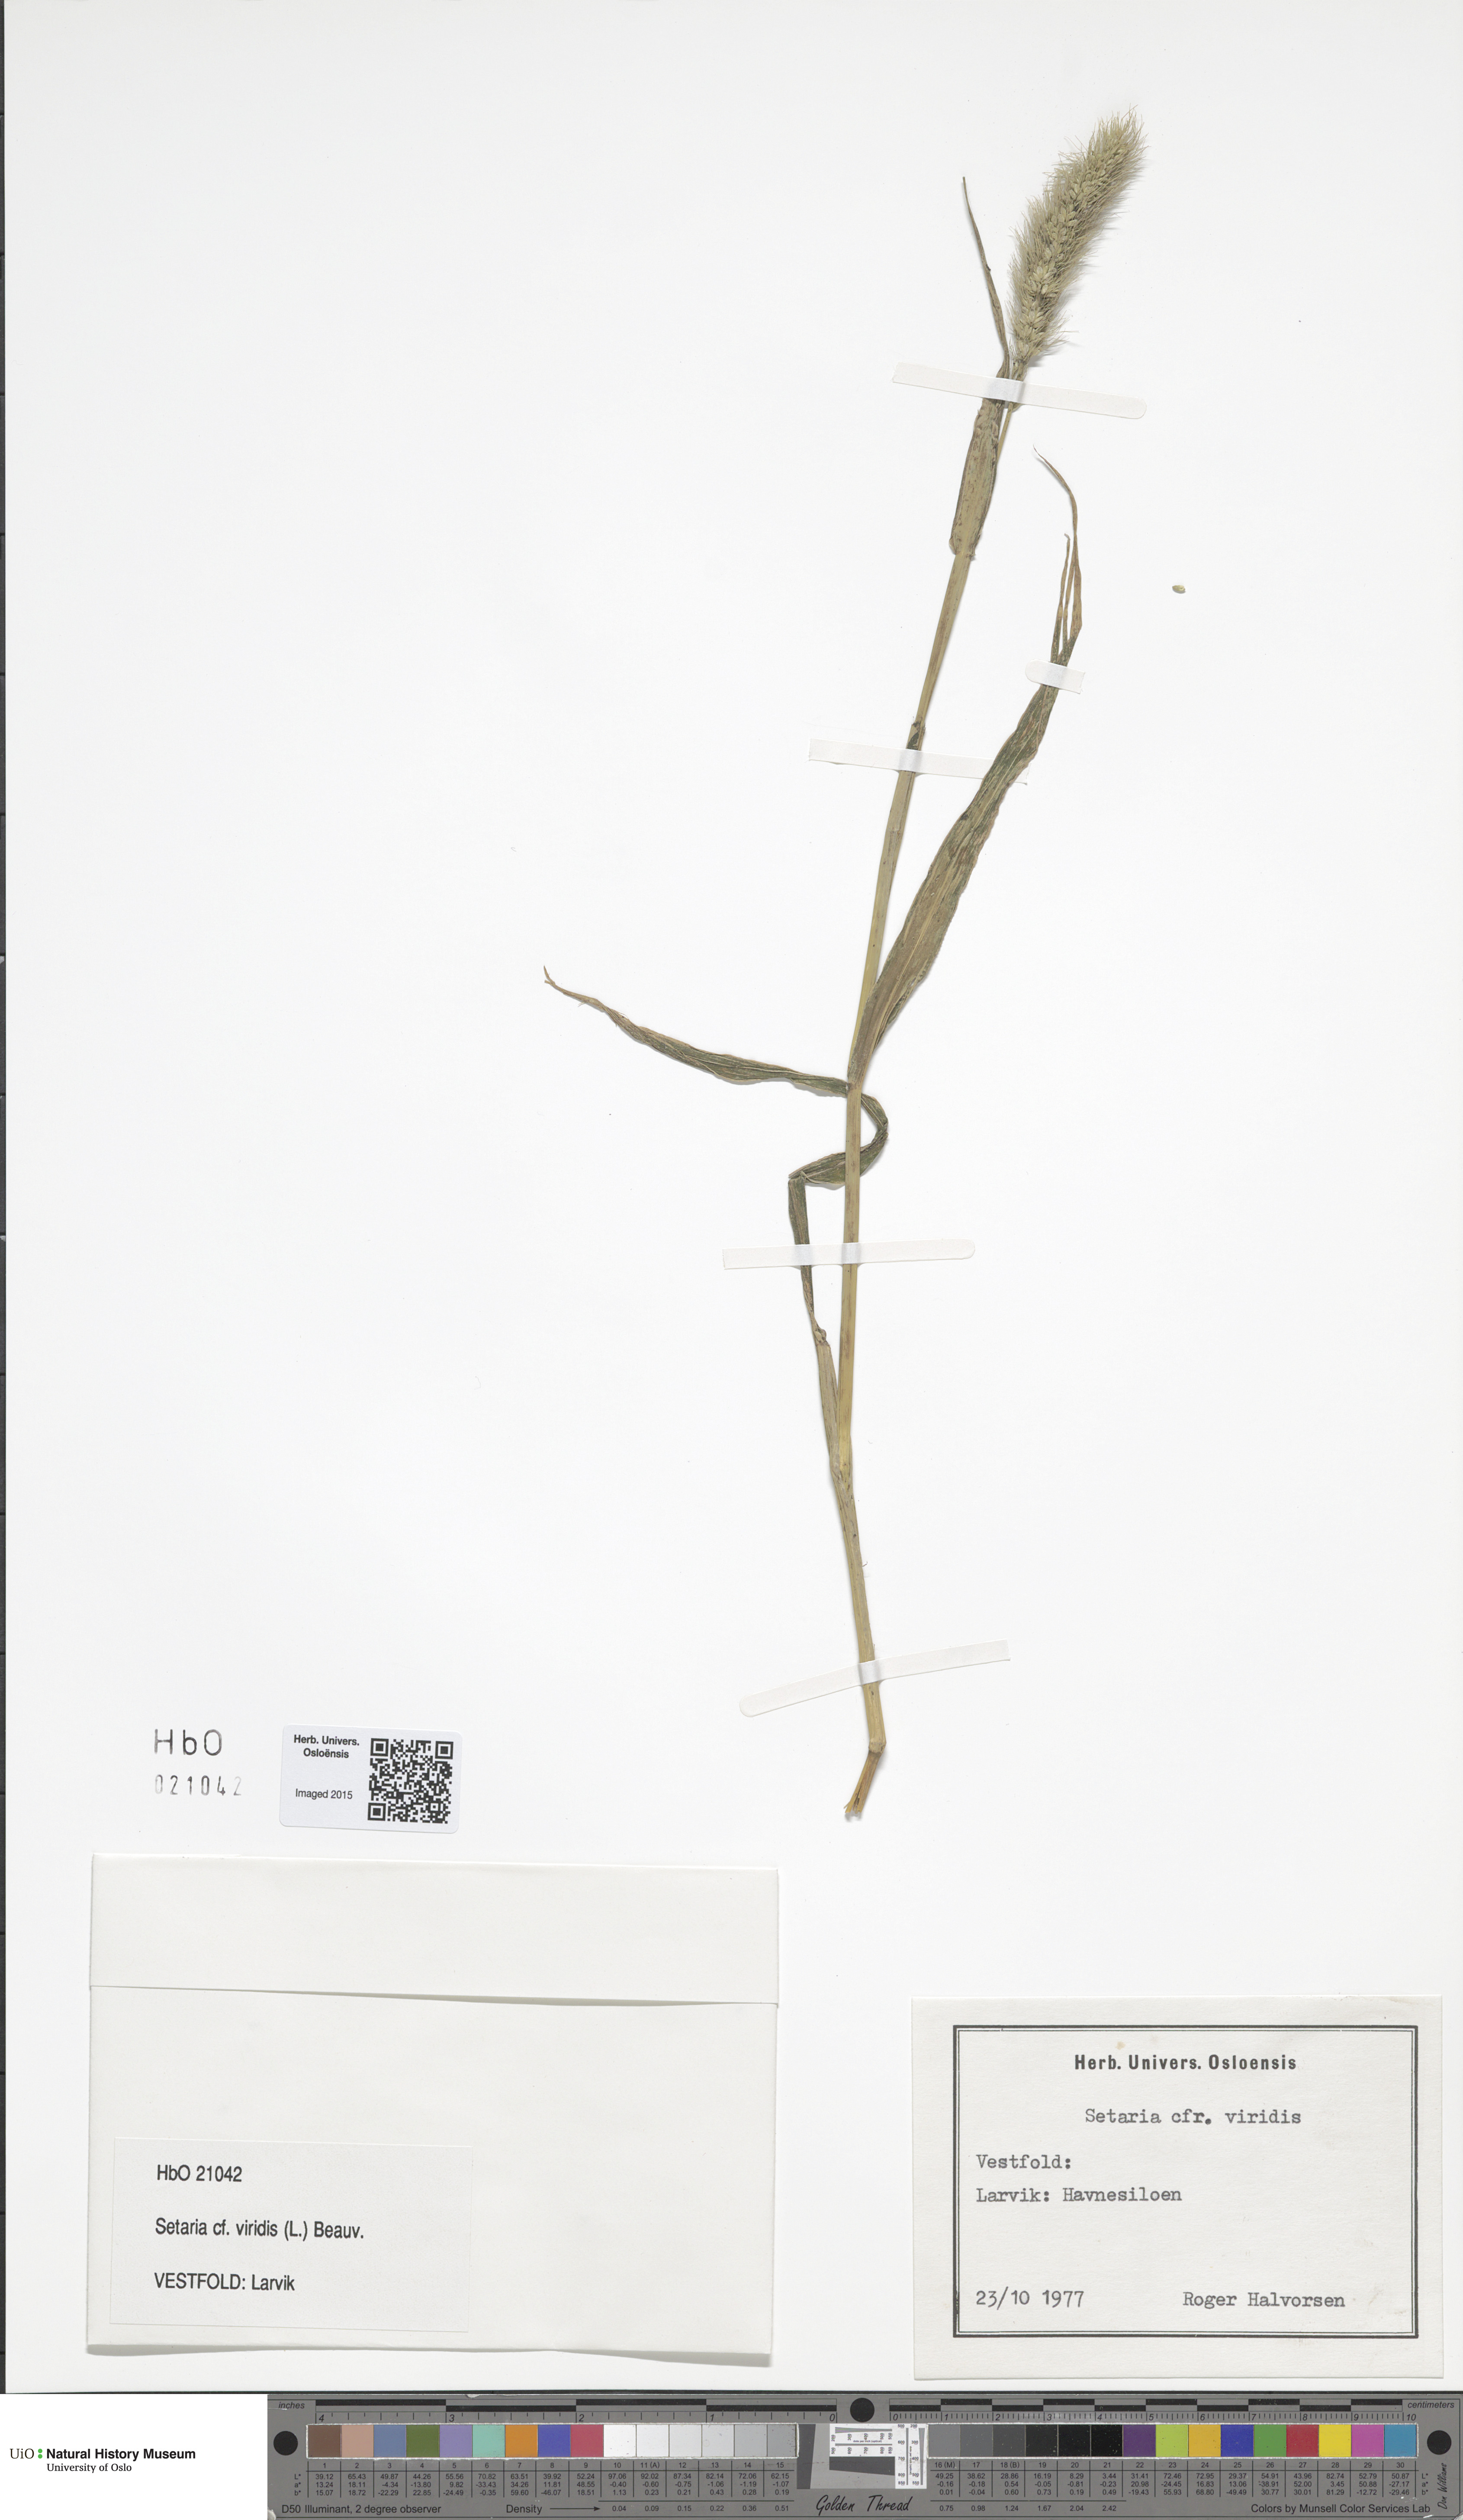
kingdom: Plantae
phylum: Tracheophyta
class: Liliopsida
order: Poales
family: Poaceae
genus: Setaria
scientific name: Setaria viridis
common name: Green bristlegrass
